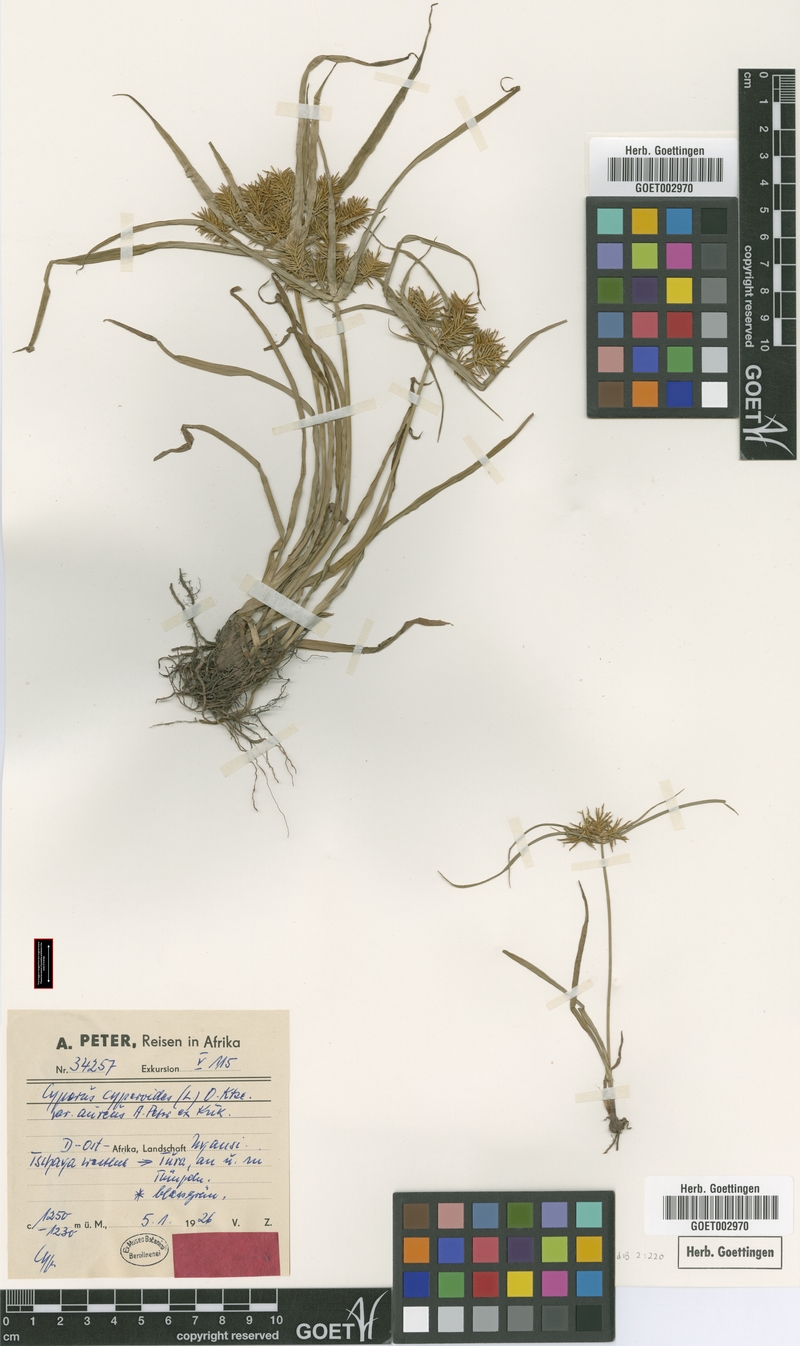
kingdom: Plantae
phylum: Tracheophyta
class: Liliopsida
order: Poales
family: Cyperaceae
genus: Cyperus
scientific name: Cyperus cyperoides
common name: Pacific island flat sedge
